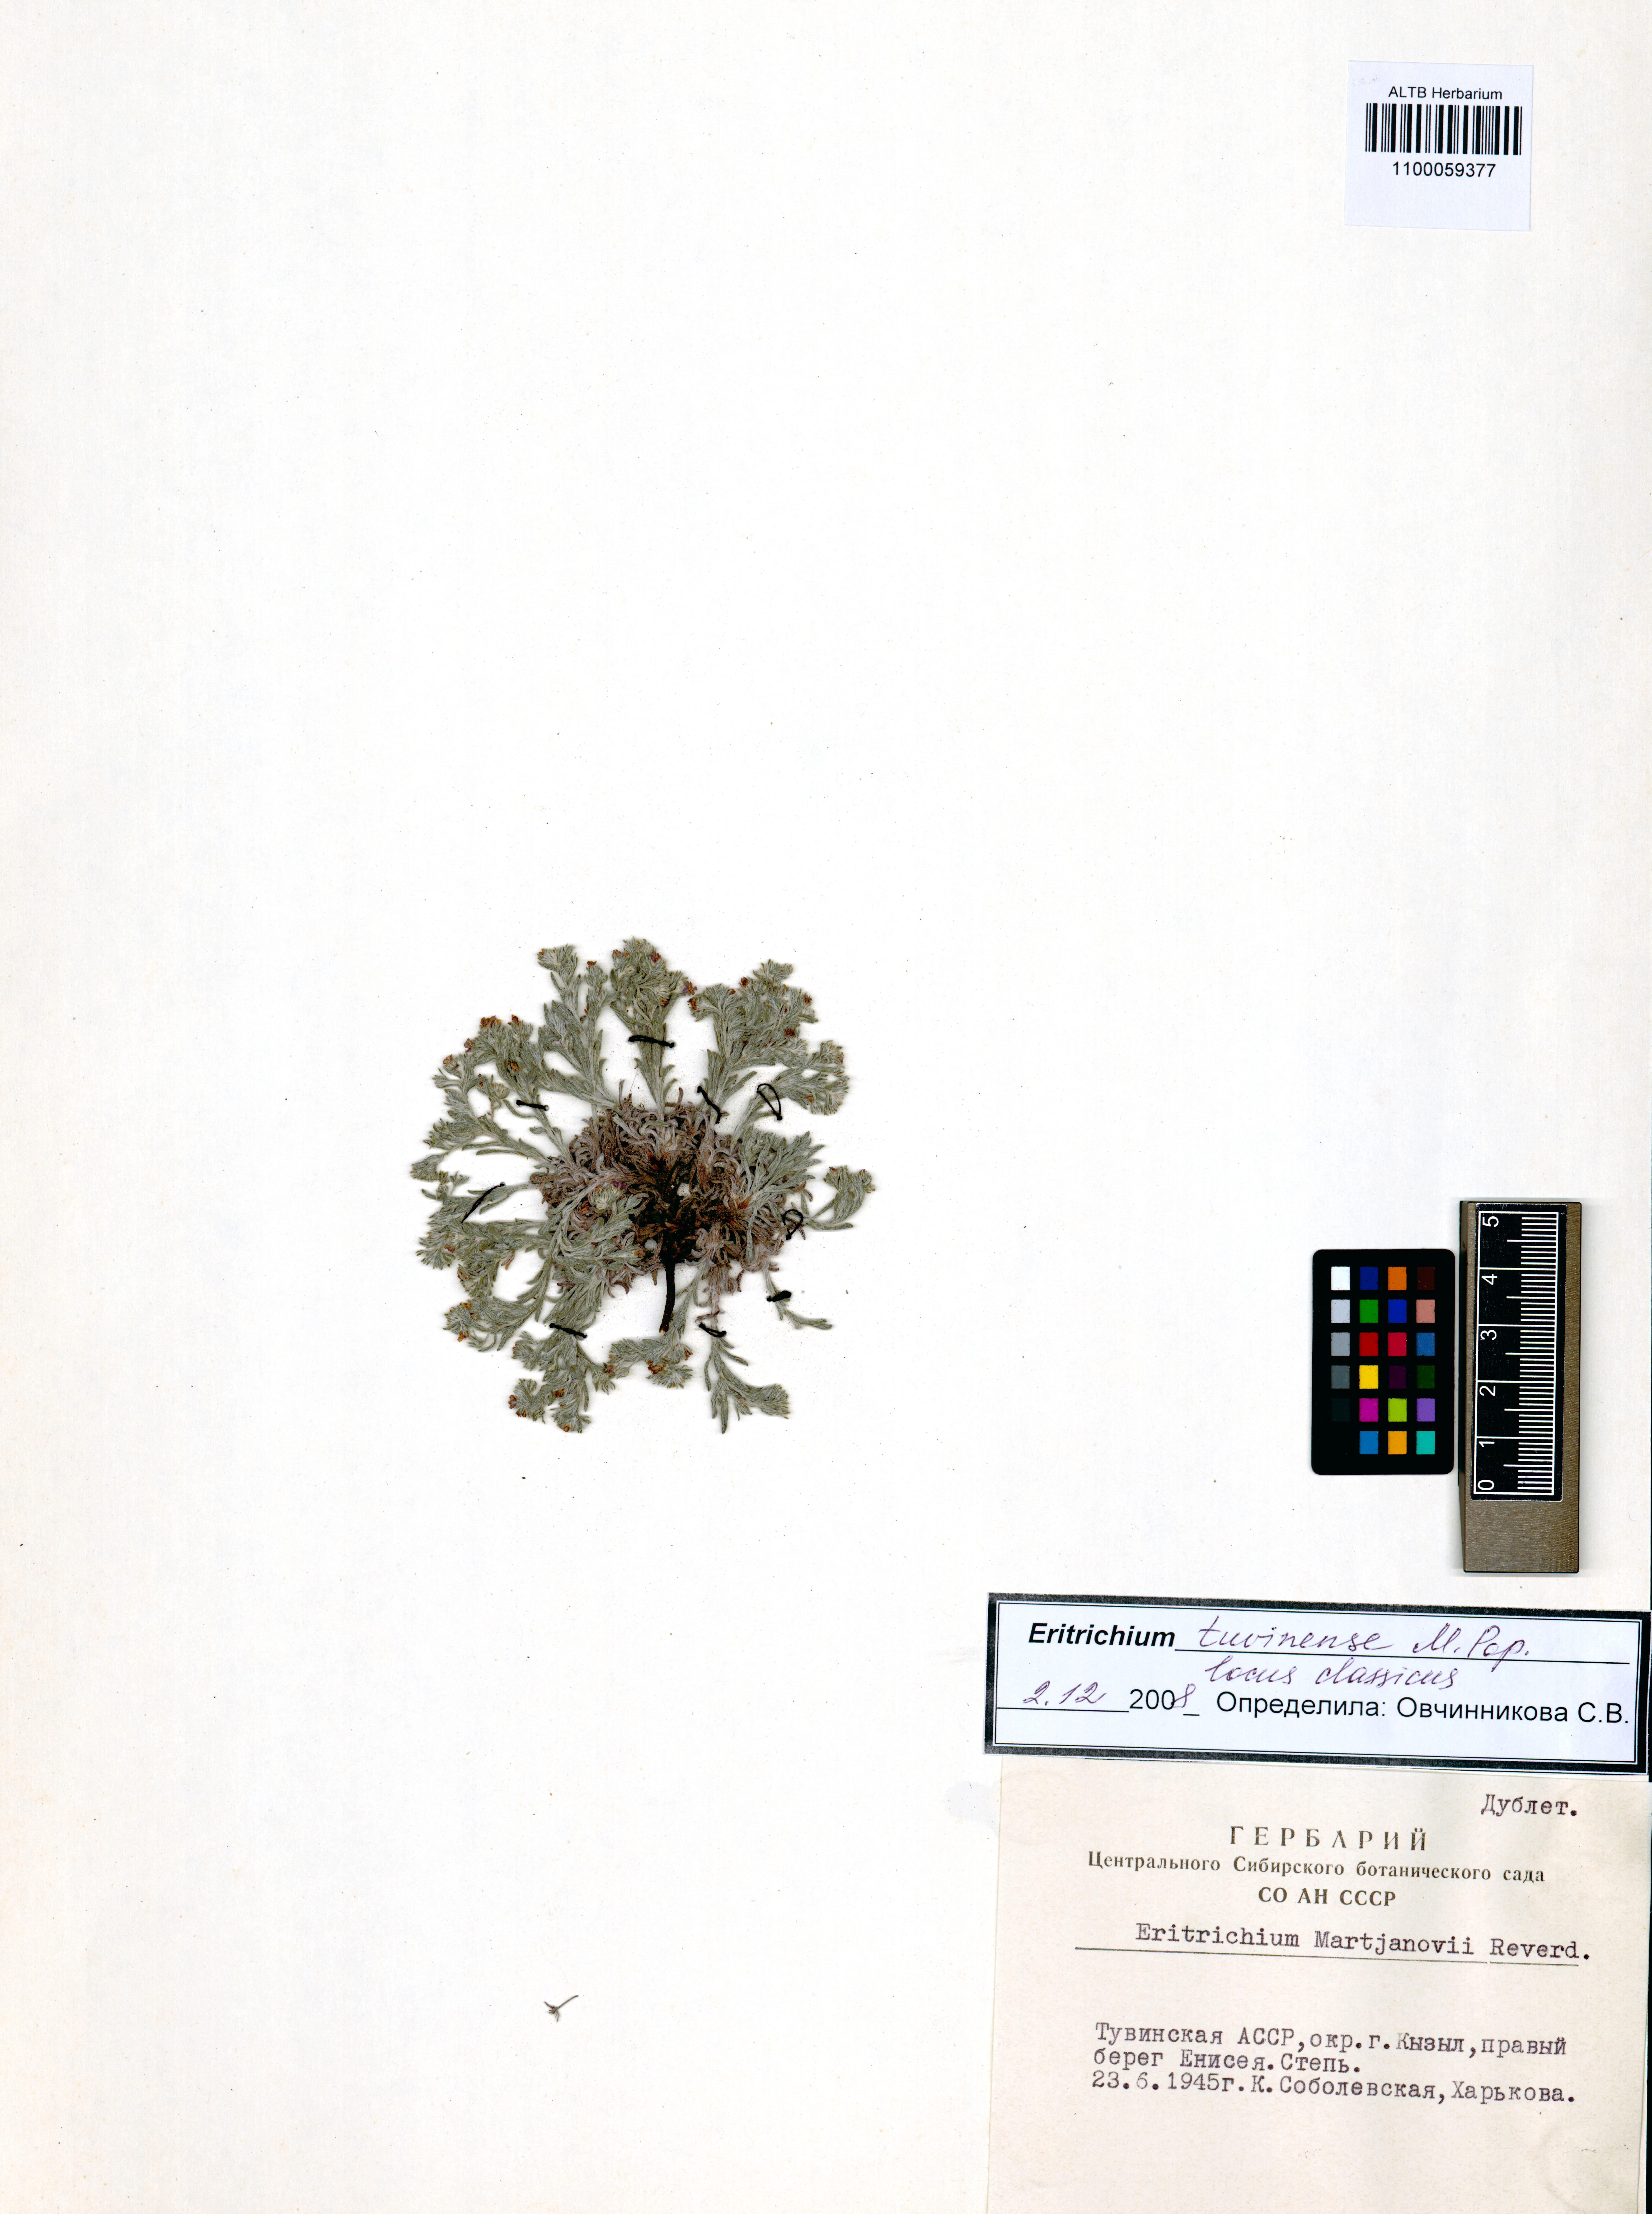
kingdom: Plantae
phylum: Tracheophyta
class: Magnoliopsida
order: Boraginales
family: Boraginaceae
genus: Eritrichium
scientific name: Eritrichium tuvinense
